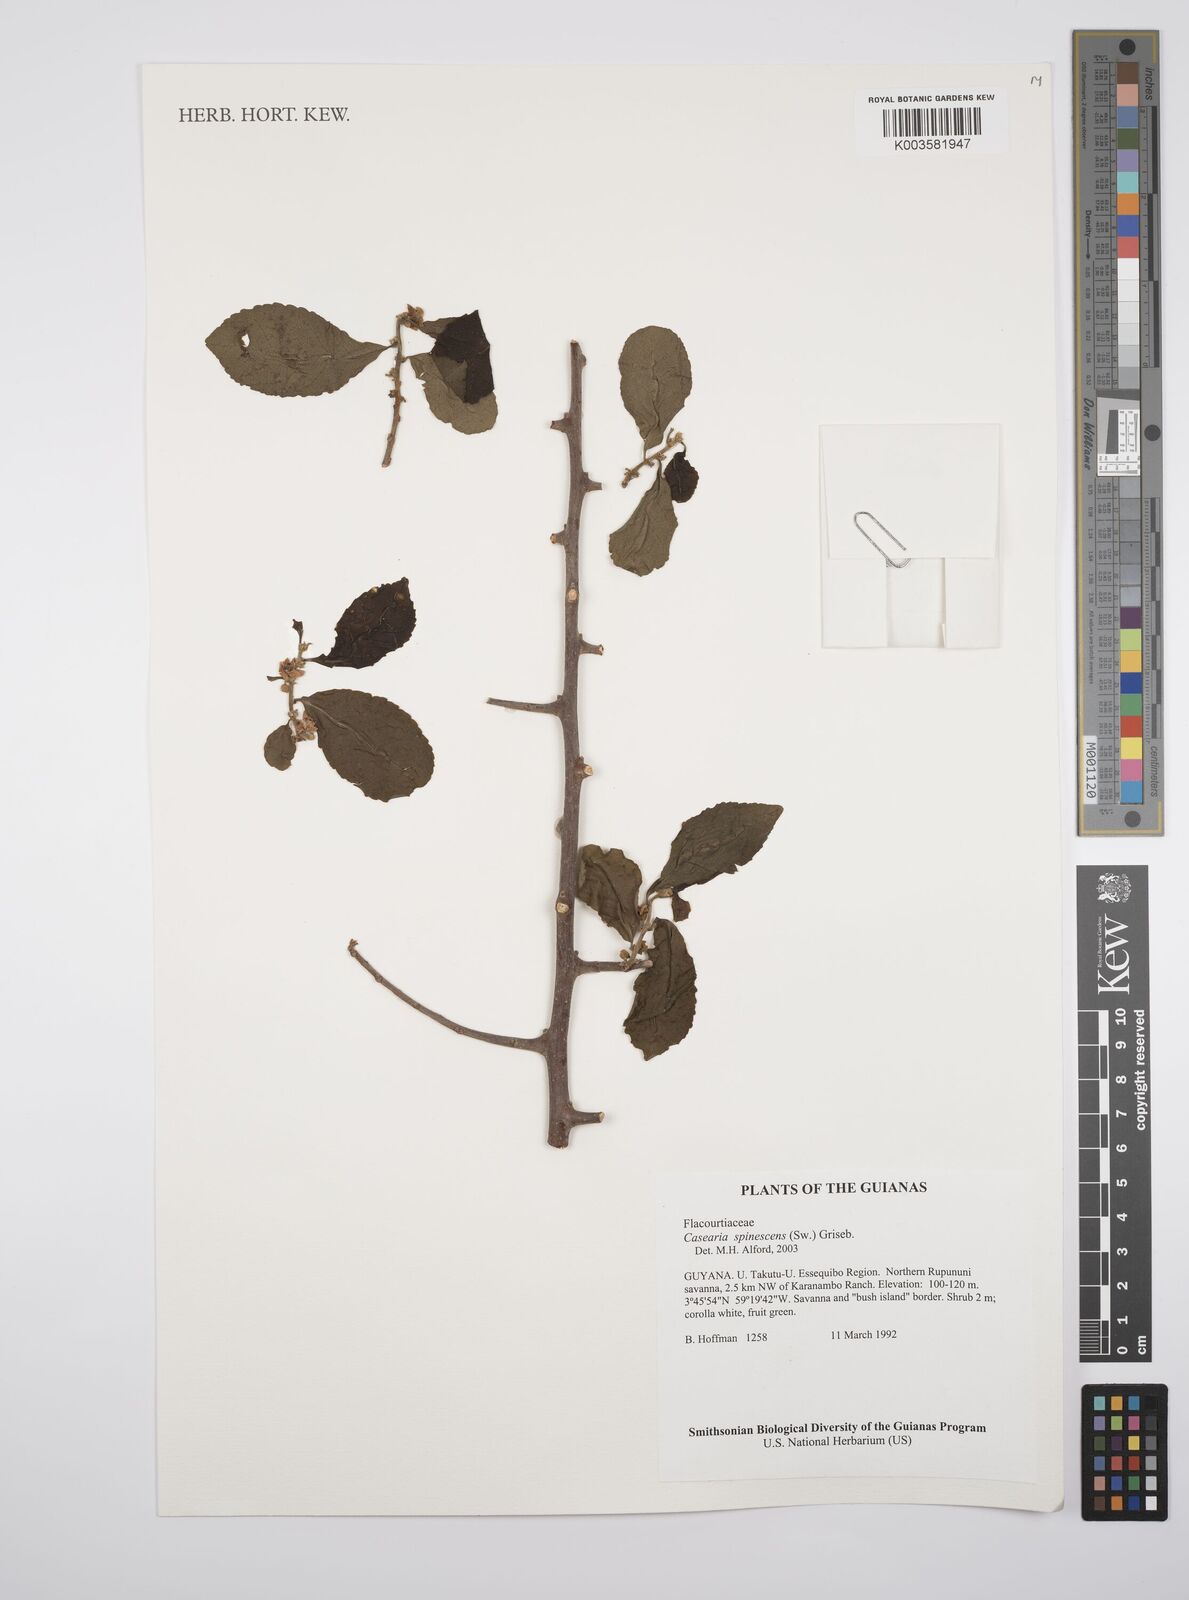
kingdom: Plantae
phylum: Tracheophyta
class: Magnoliopsida
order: Malpighiales
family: Salicaceae
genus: Casearia
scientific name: Casearia spinescens
